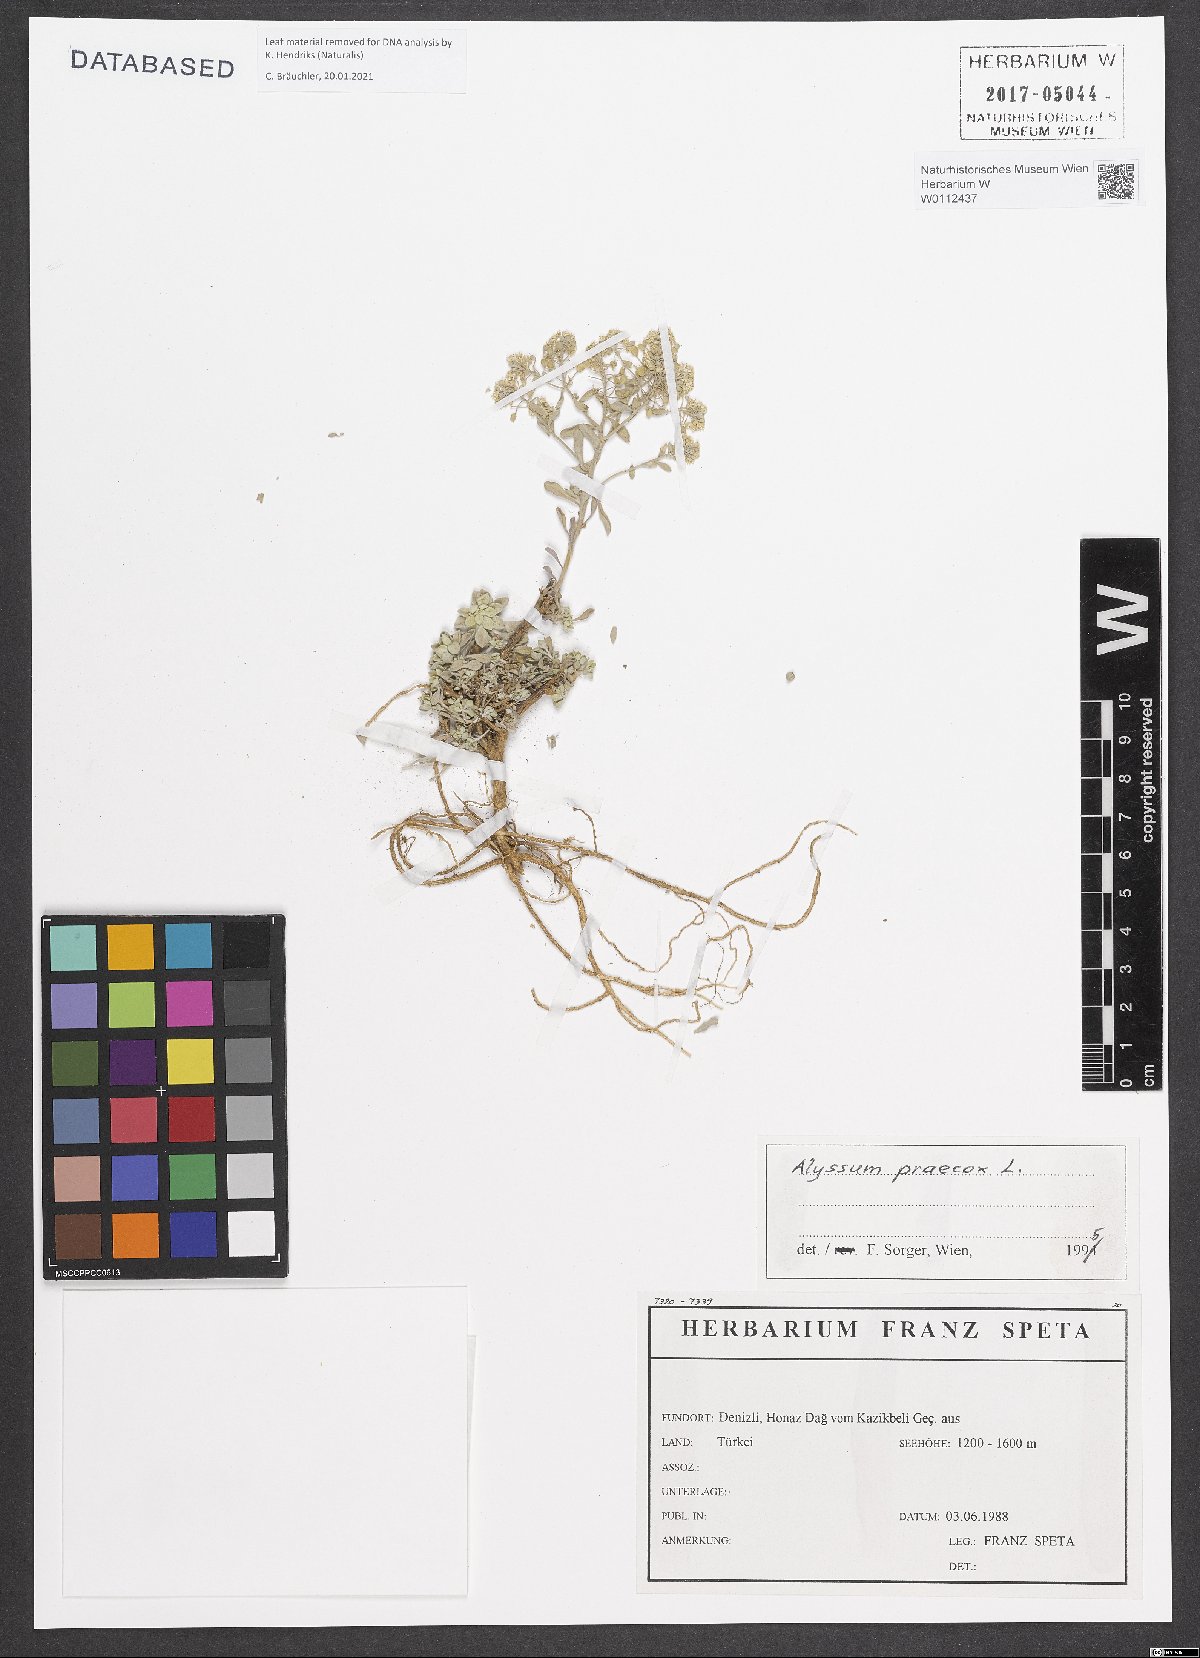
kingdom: Plantae
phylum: Tracheophyta
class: Magnoliopsida
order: Brassicales
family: Brassicaceae
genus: Alyssum
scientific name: Alyssum praecox
